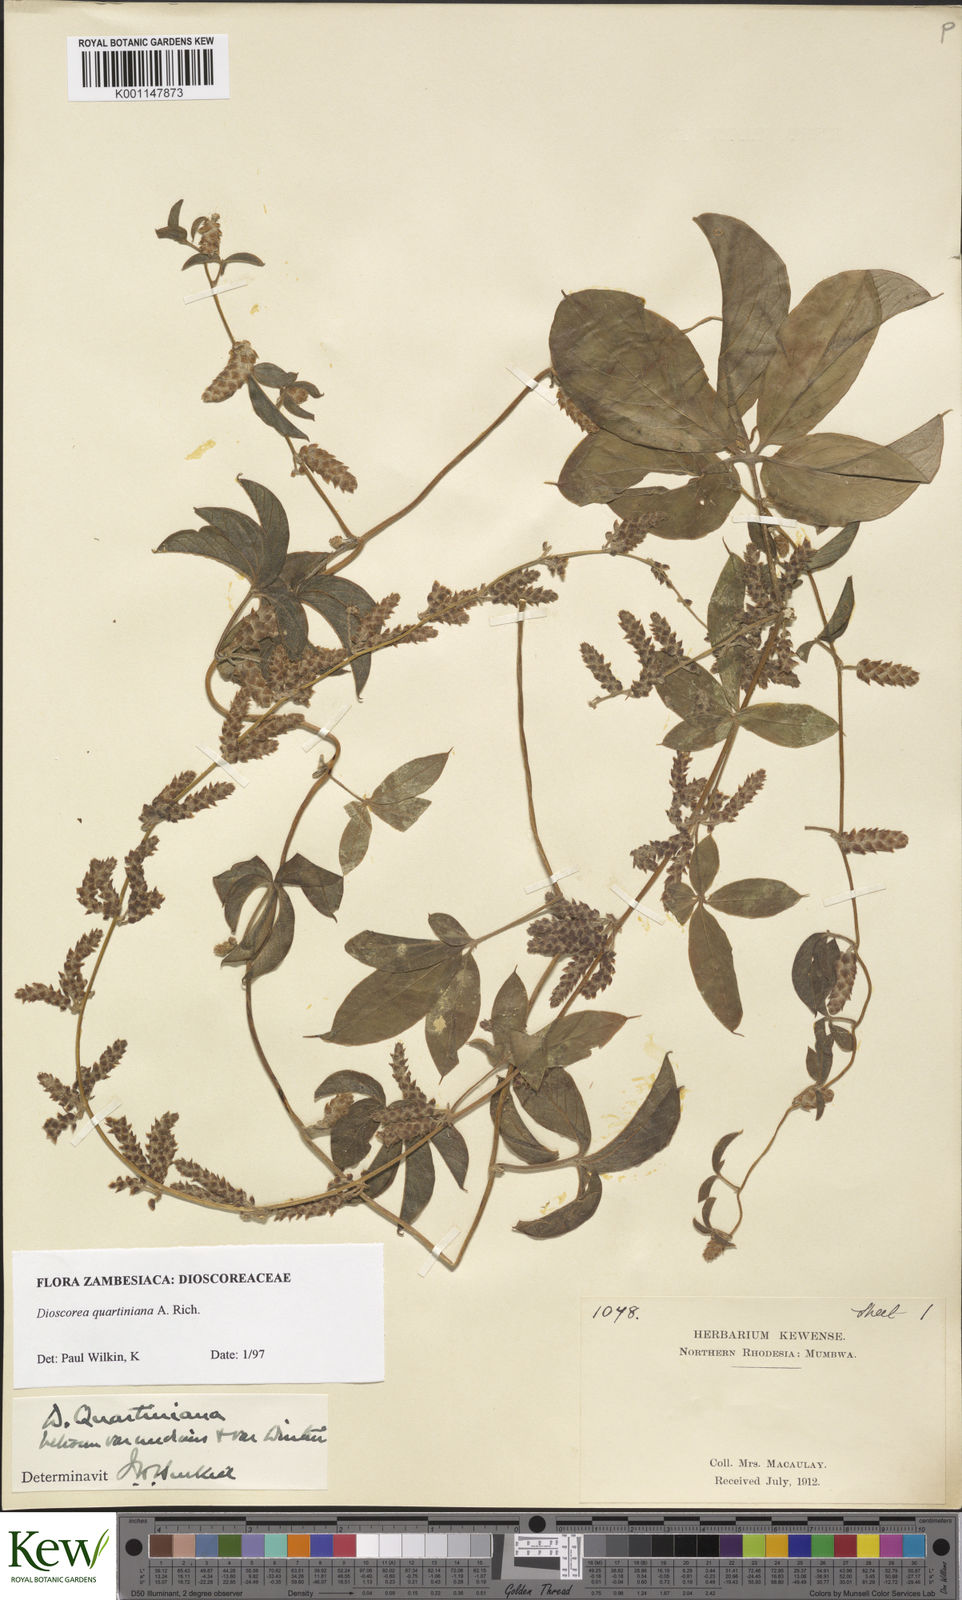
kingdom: Plantae
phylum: Tracheophyta
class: Liliopsida
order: Dioscoreales
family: Dioscoreaceae
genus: Dioscorea
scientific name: Dioscorea quartiniana
